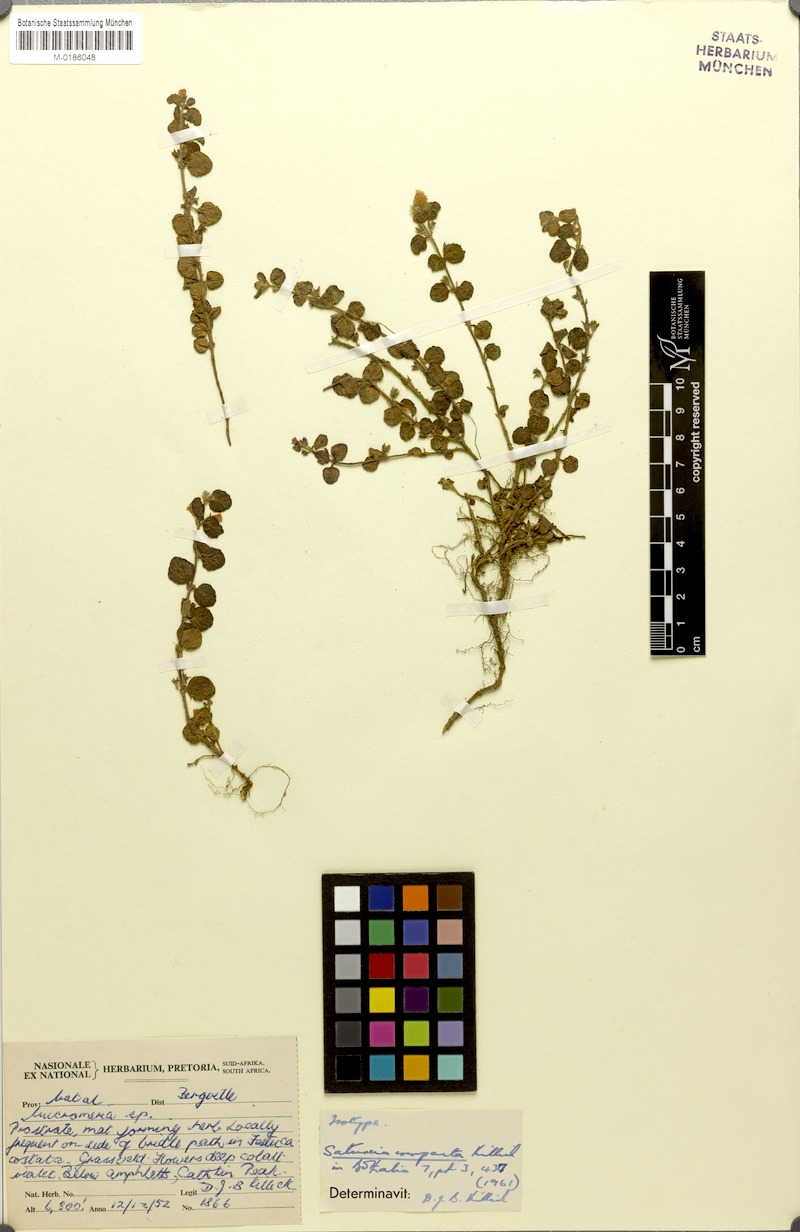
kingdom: Plantae
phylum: Tracheophyta
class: Magnoliopsida
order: Lamiales
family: Lamiaceae
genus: Killickia
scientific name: Killickia compacta
